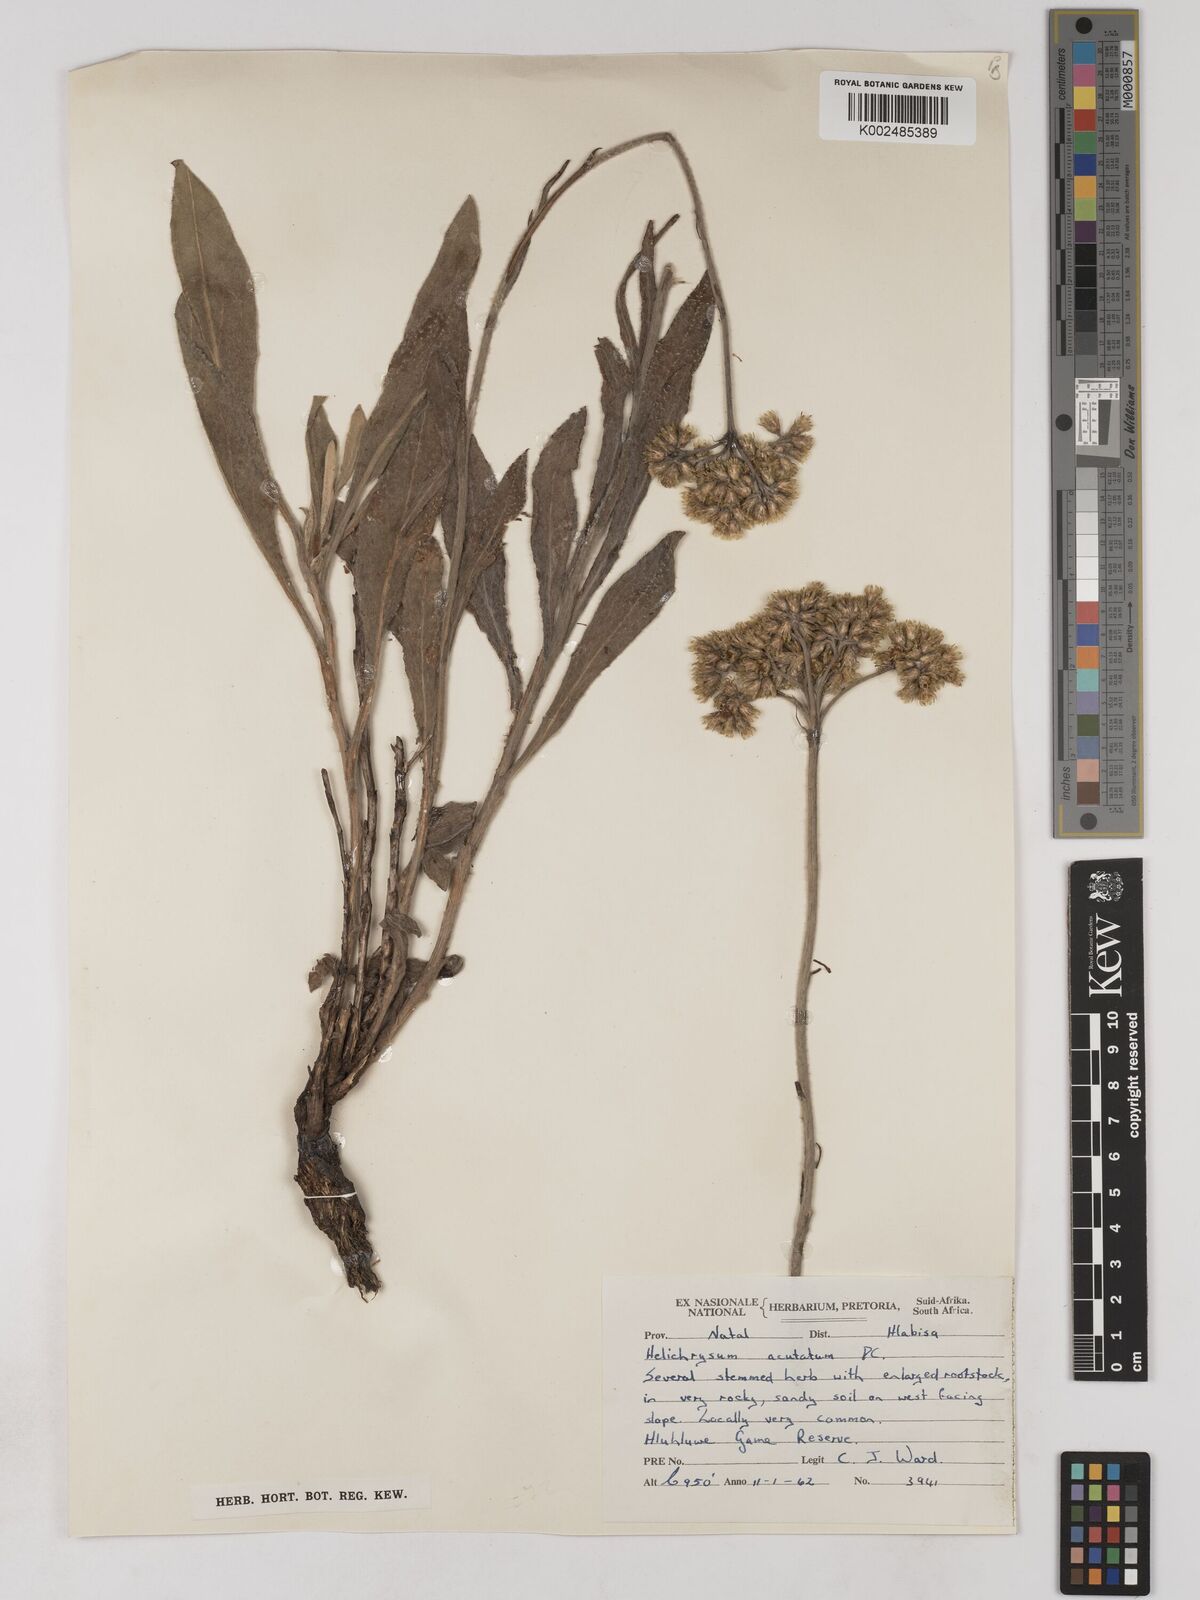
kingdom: Plantae
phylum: Tracheophyta
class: Magnoliopsida
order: Asterales
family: Asteraceae
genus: Helichrysum
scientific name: Helichrysum acutatum
